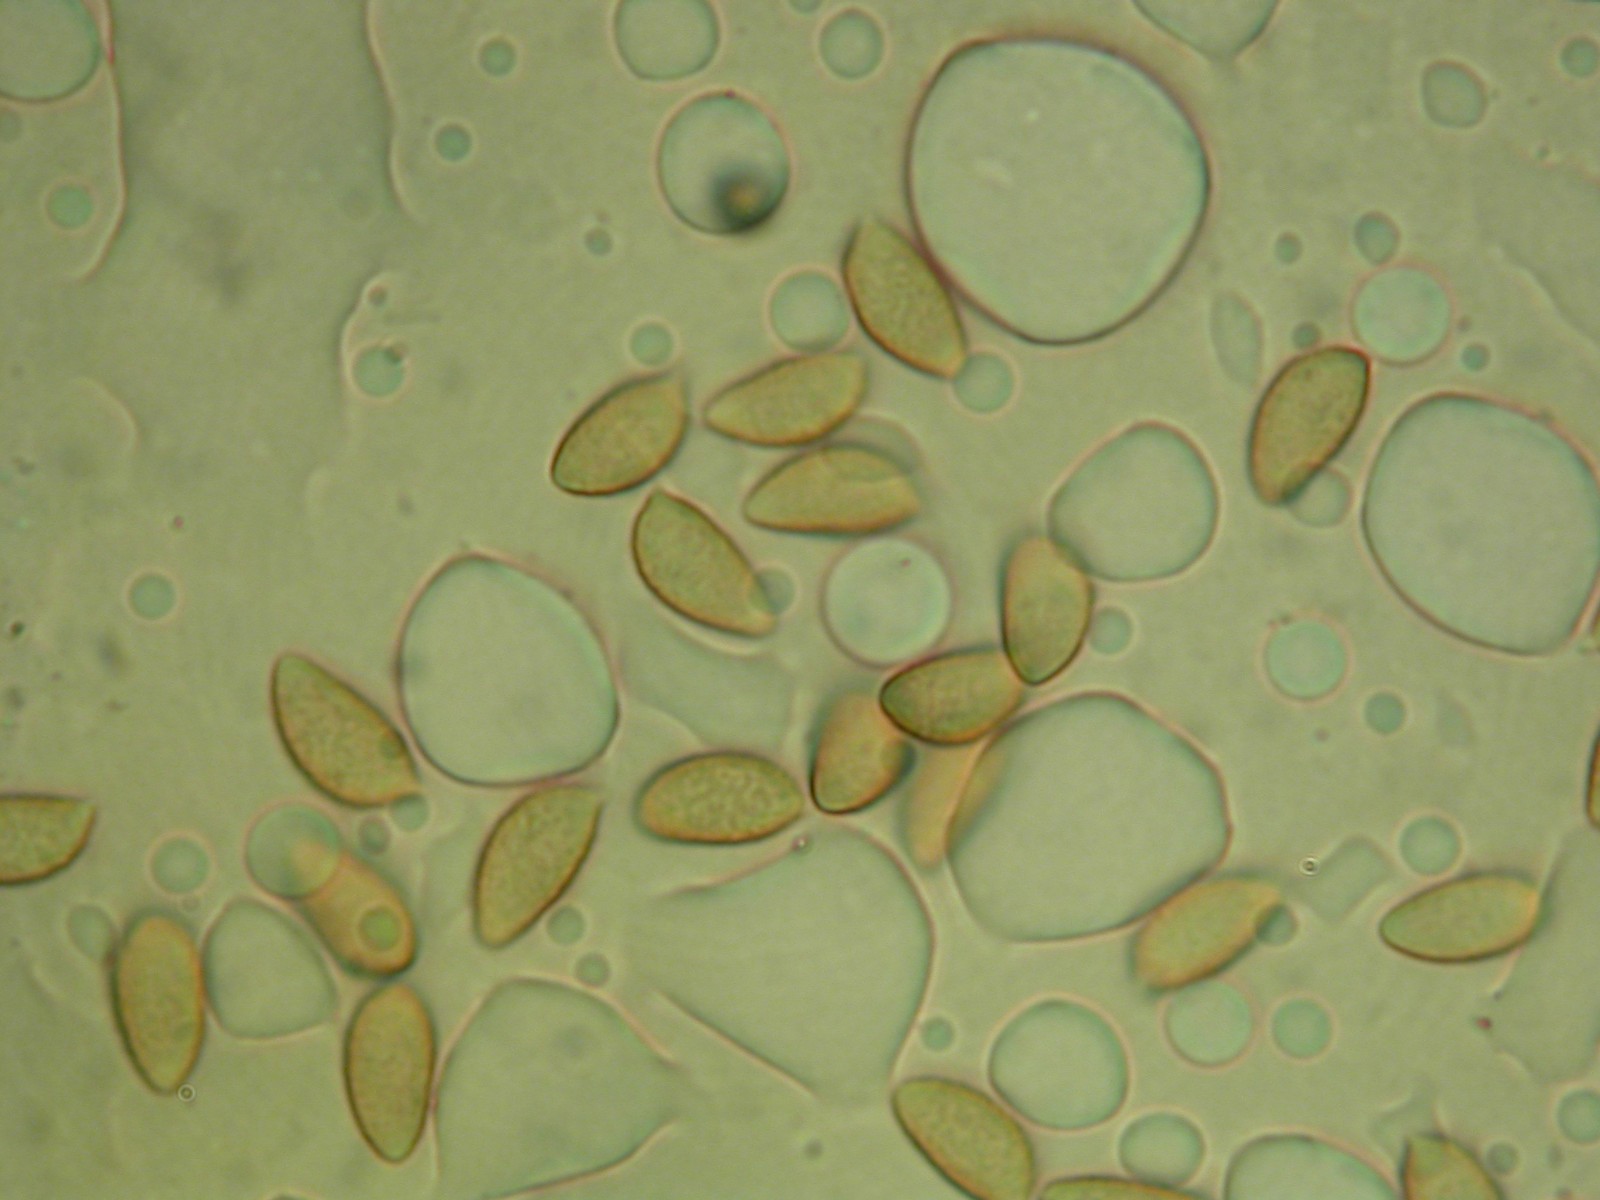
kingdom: Fungi
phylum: Basidiomycota
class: Agaricomycetes
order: Agaricales
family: Hymenogastraceae
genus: Hebeloma
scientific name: Hebeloma helodes
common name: rank tåreblad
